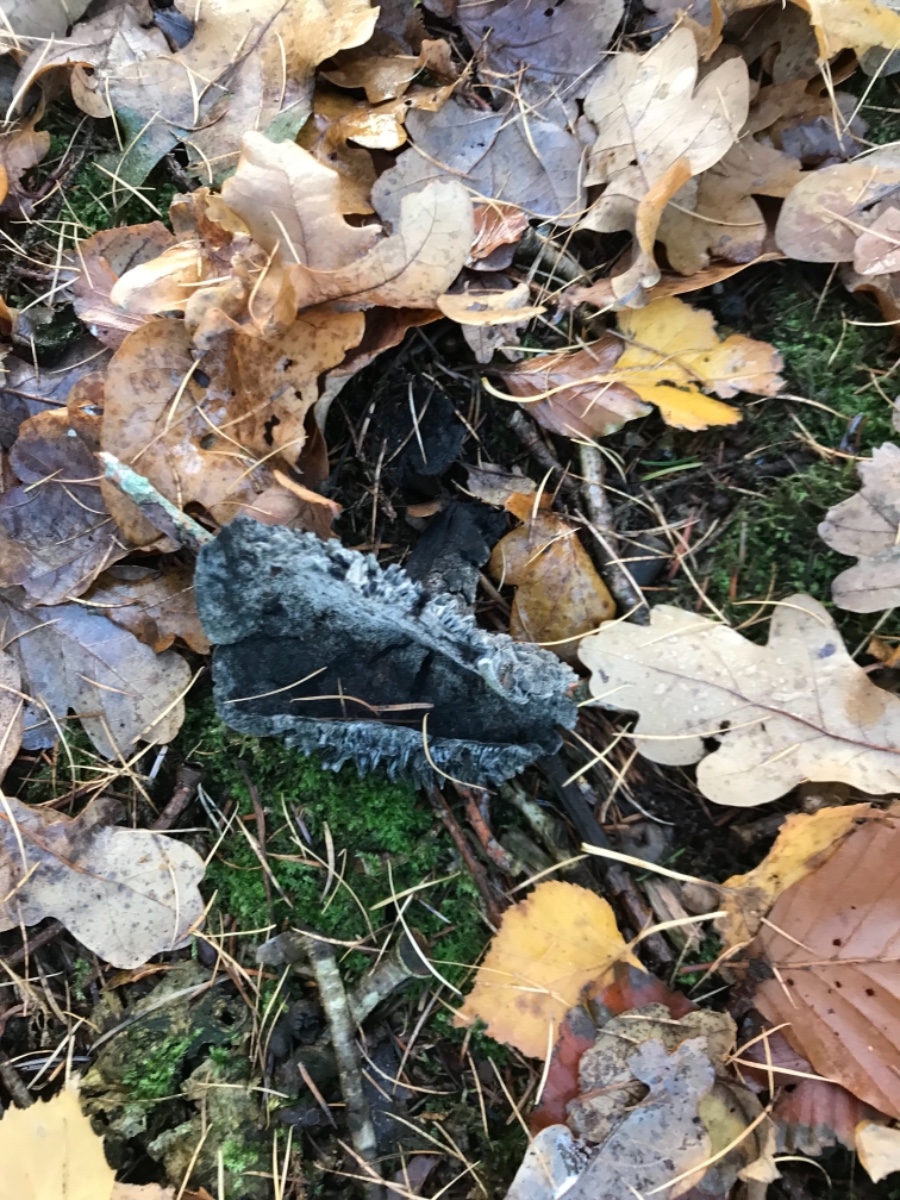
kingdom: Fungi
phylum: Basidiomycota
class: Agaricomycetes
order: Russulales
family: Russulaceae
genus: Russula
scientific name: Russula
